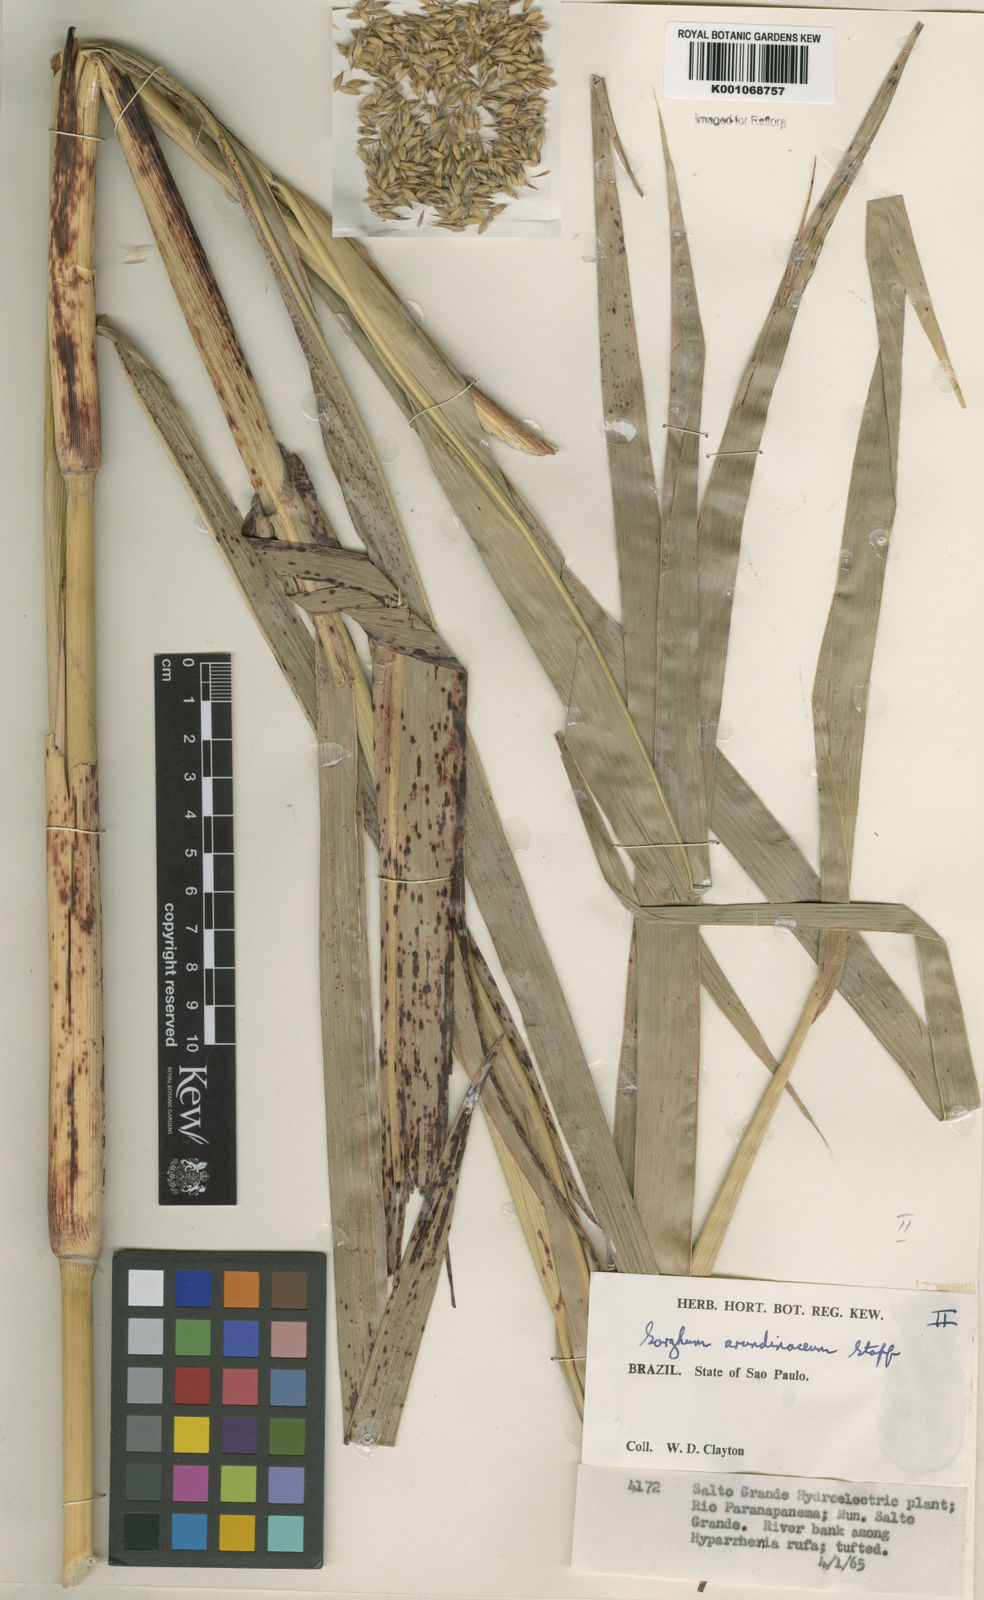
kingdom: Plantae
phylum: Tracheophyta
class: Liliopsida
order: Poales
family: Poaceae
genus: Sorghum
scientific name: Sorghum arundinaceum
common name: Sorghum
